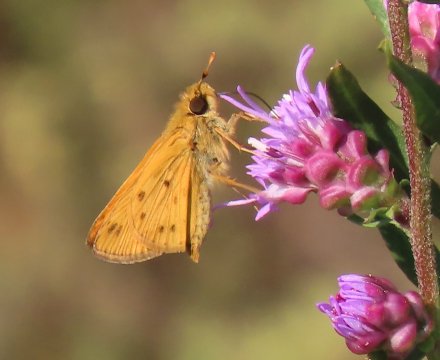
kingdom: Animalia
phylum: Arthropoda
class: Insecta
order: Lepidoptera
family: Hesperiidae
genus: Hylephila
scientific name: Hylephila phyleus
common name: Fiery Skipper
